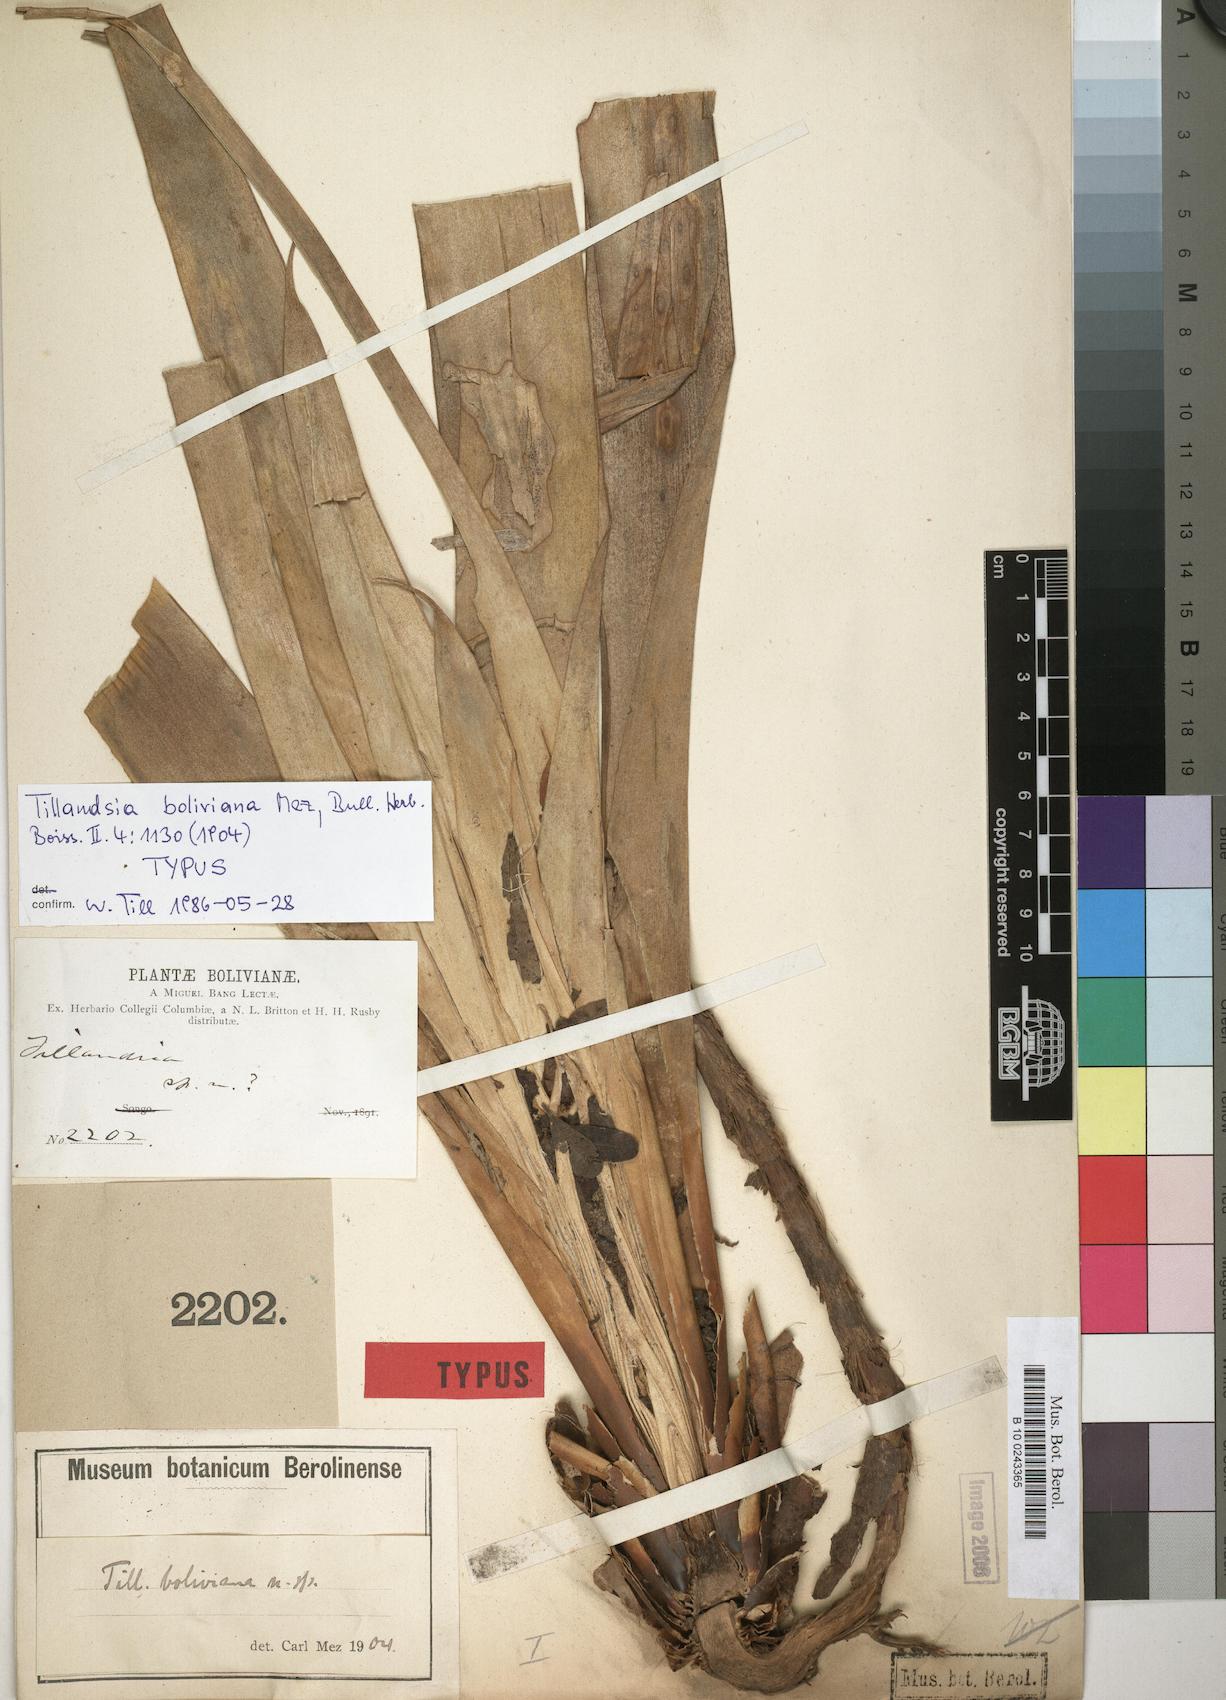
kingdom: Plantae
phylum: Tracheophyta
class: Liliopsida
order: Poales
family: Bromeliaceae
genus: Tillandsia
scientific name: Tillandsia boliviana
